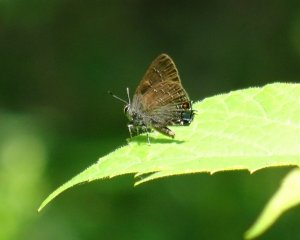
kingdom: Animalia
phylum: Arthropoda
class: Insecta
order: Lepidoptera
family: Lycaenidae
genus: Strymon
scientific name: Strymon caryaevorus
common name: Hickory Hairstreak
